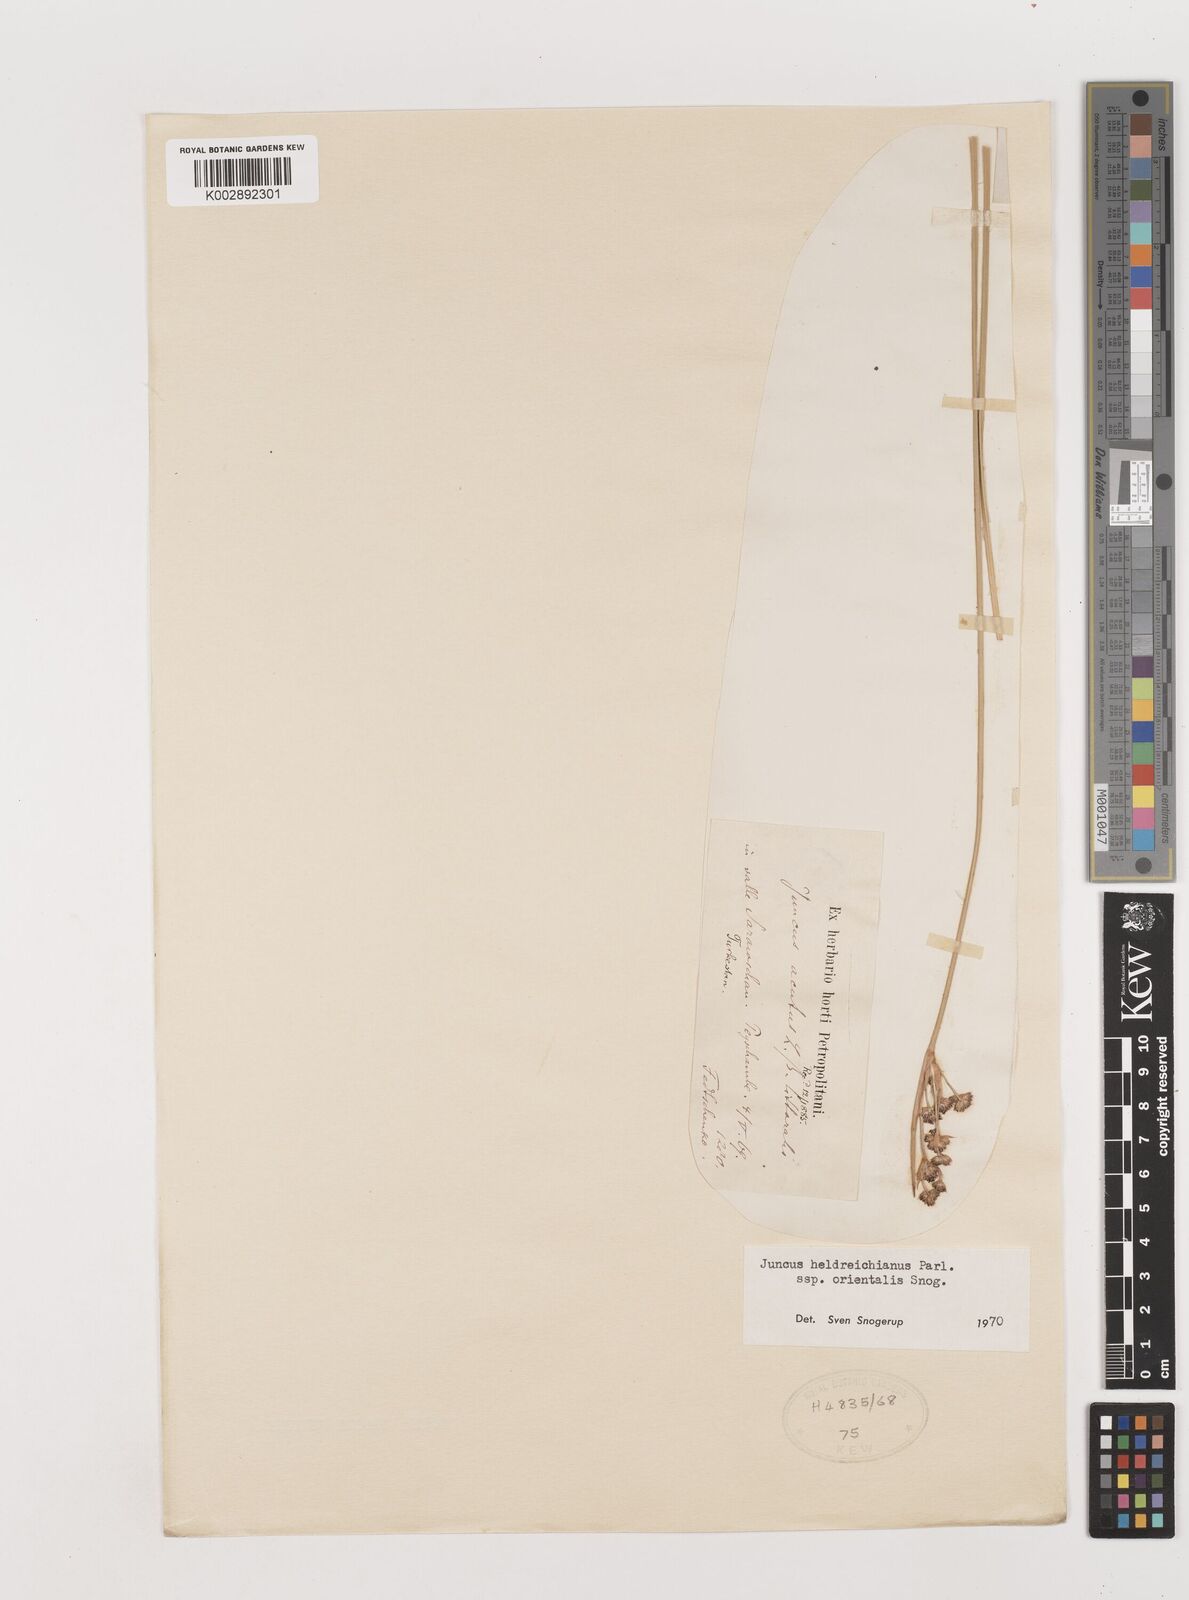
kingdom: Plantae
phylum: Tracheophyta
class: Liliopsida
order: Poales
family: Juncaceae
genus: Juncus
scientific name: Juncus heldreichianus
